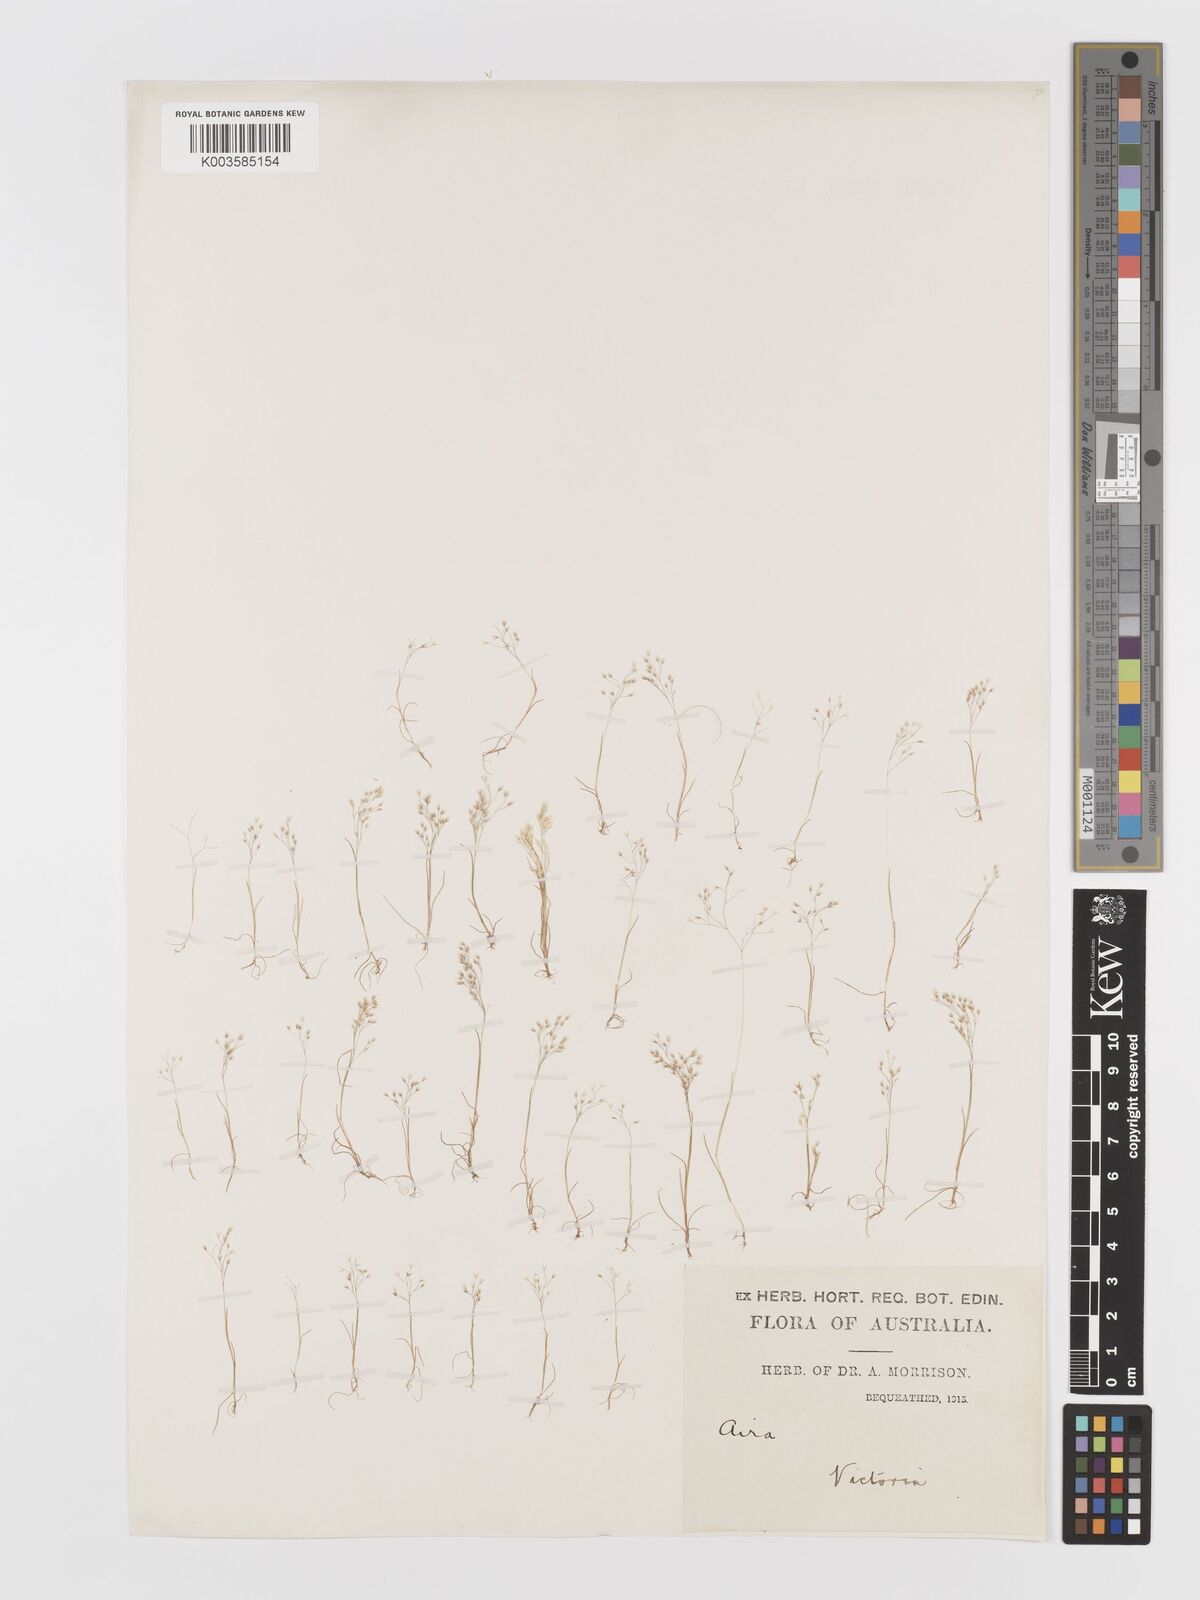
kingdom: Plantae
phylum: Tracheophyta
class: Liliopsida
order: Poales
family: Poaceae
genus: Aira
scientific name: Aira elegans
